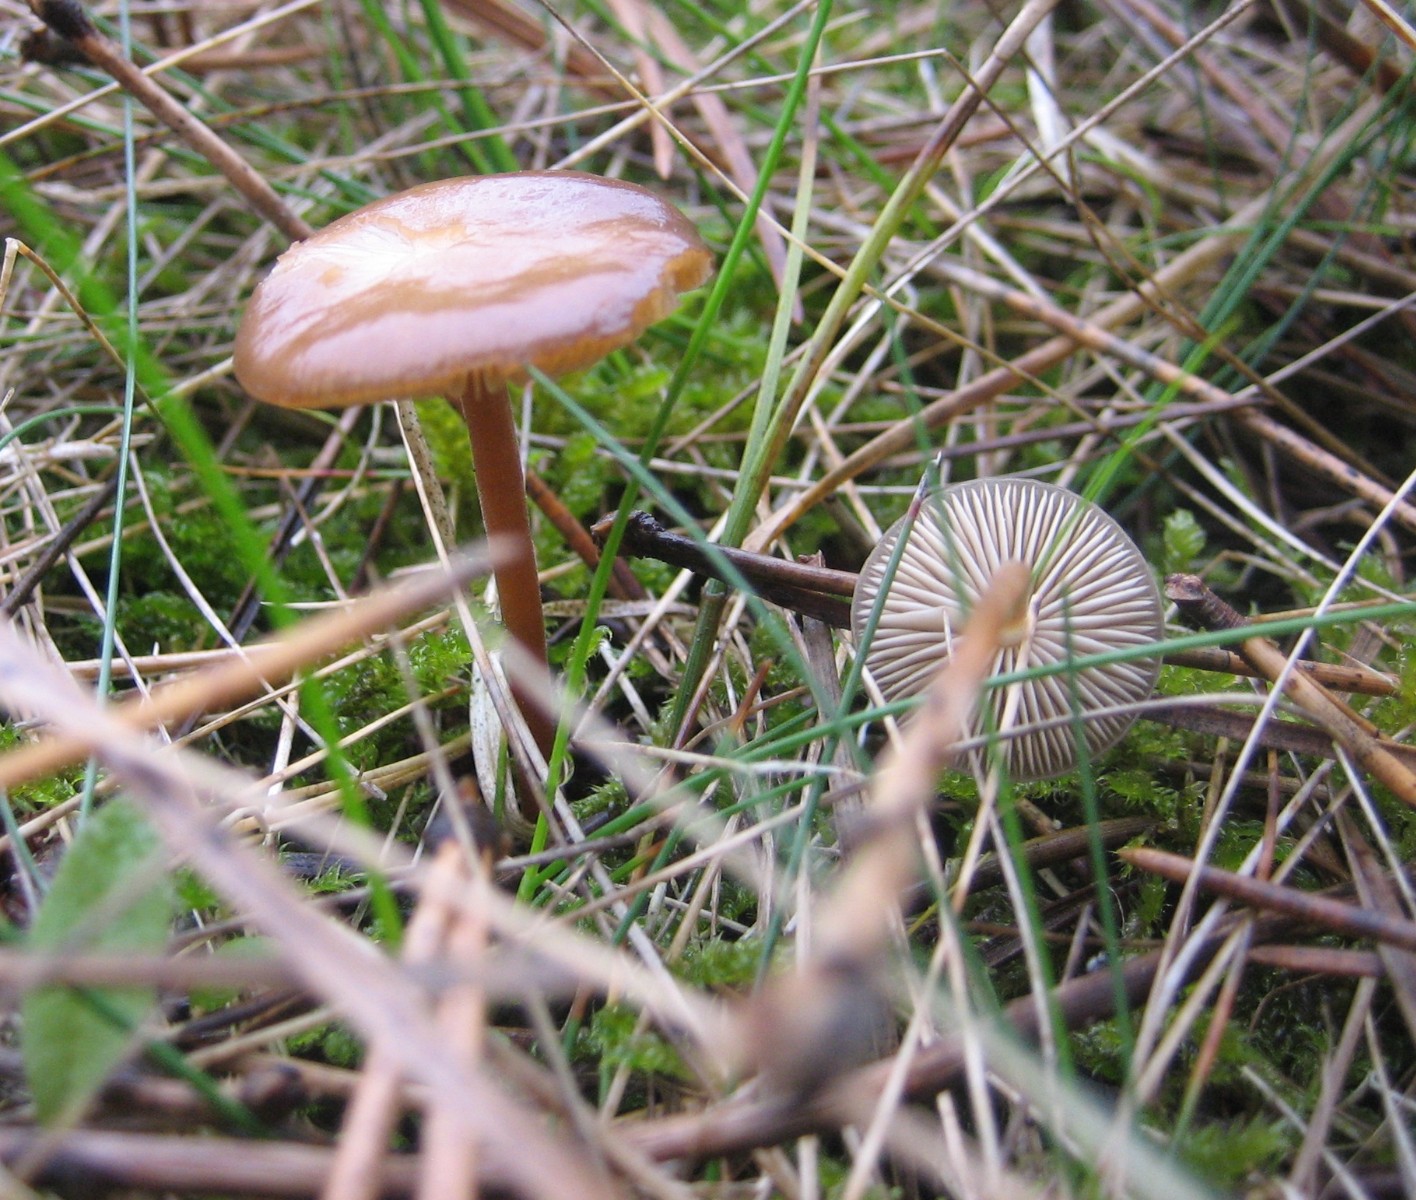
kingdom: Fungi
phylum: Basidiomycota
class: Agaricomycetes
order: Agaricales
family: Physalacriaceae
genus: Strobilurus
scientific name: Strobilurus
